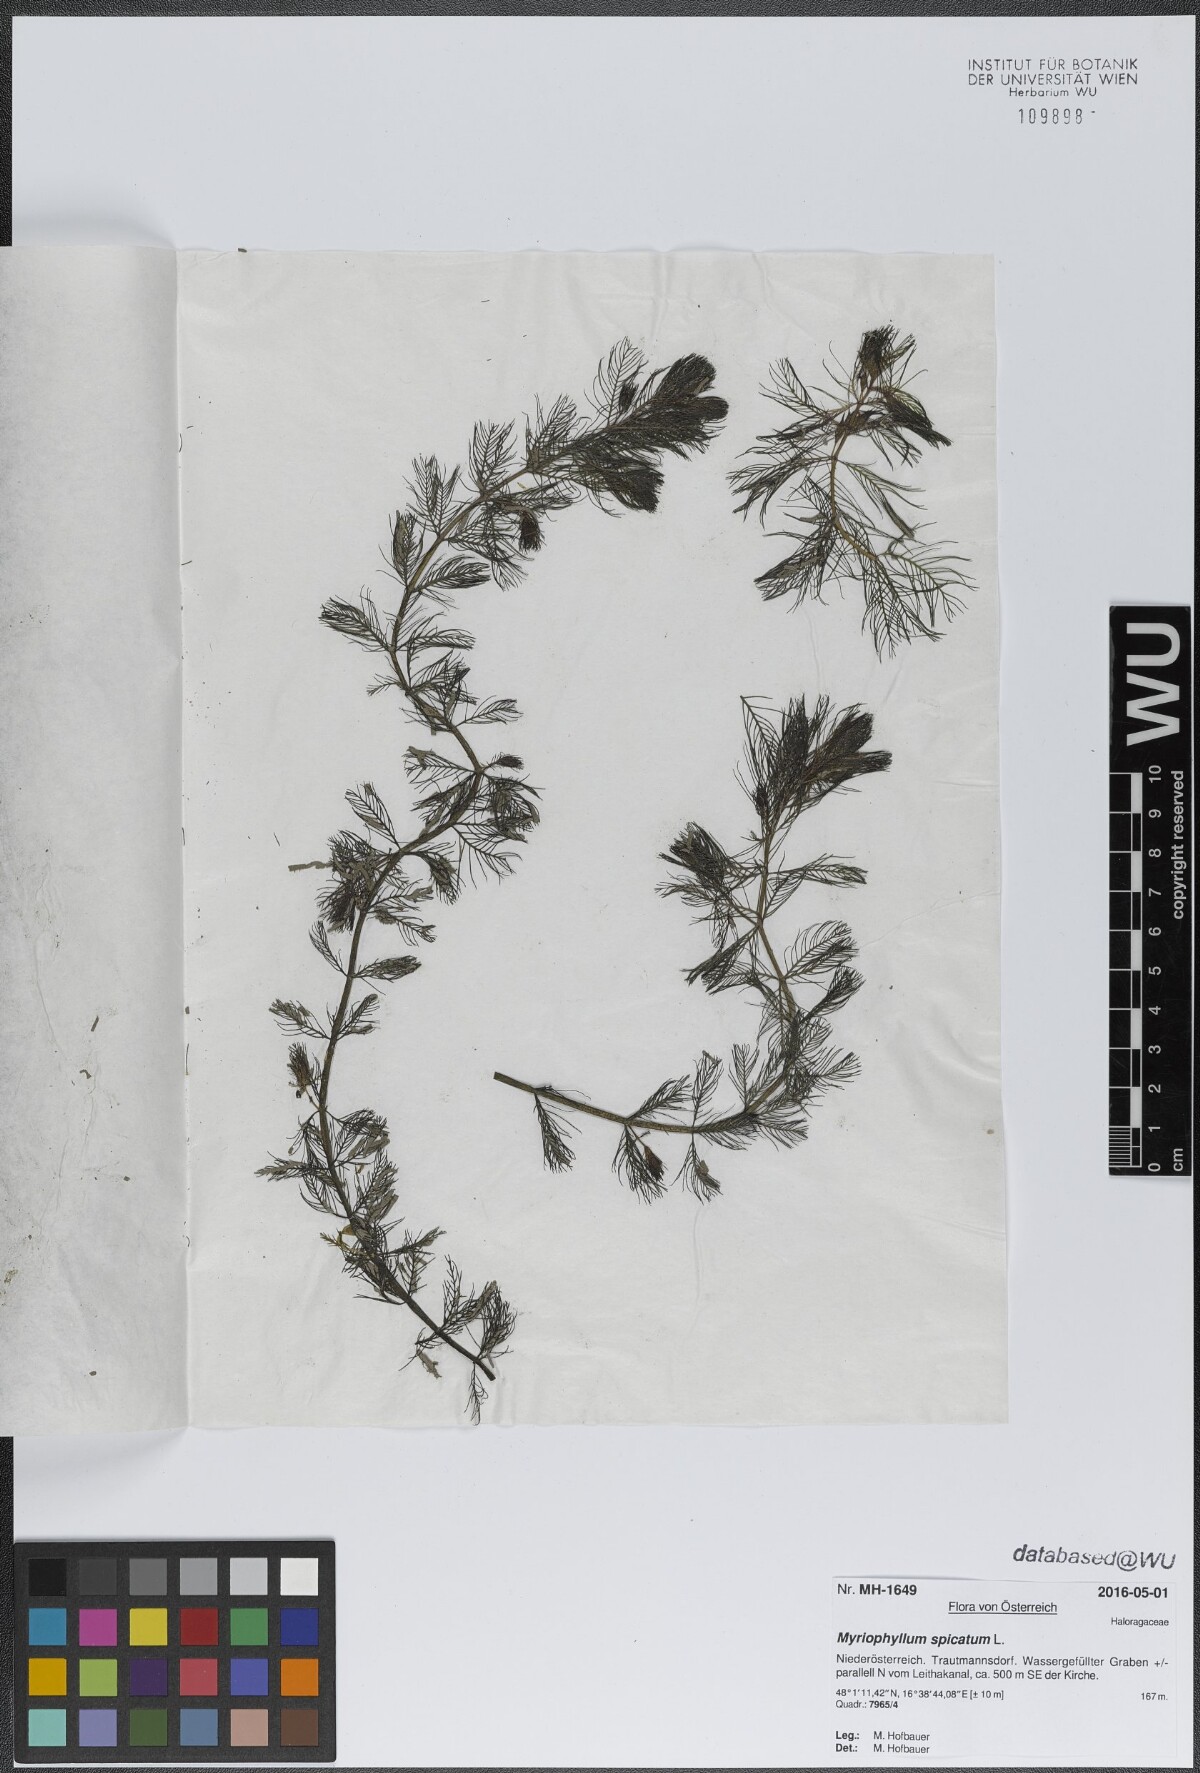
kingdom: Plantae
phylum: Tracheophyta
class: Magnoliopsida
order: Saxifragales
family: Haloragaceae
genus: Myriophyllum
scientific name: Myriophyllum spicatum
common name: Spiked water-milfoil
